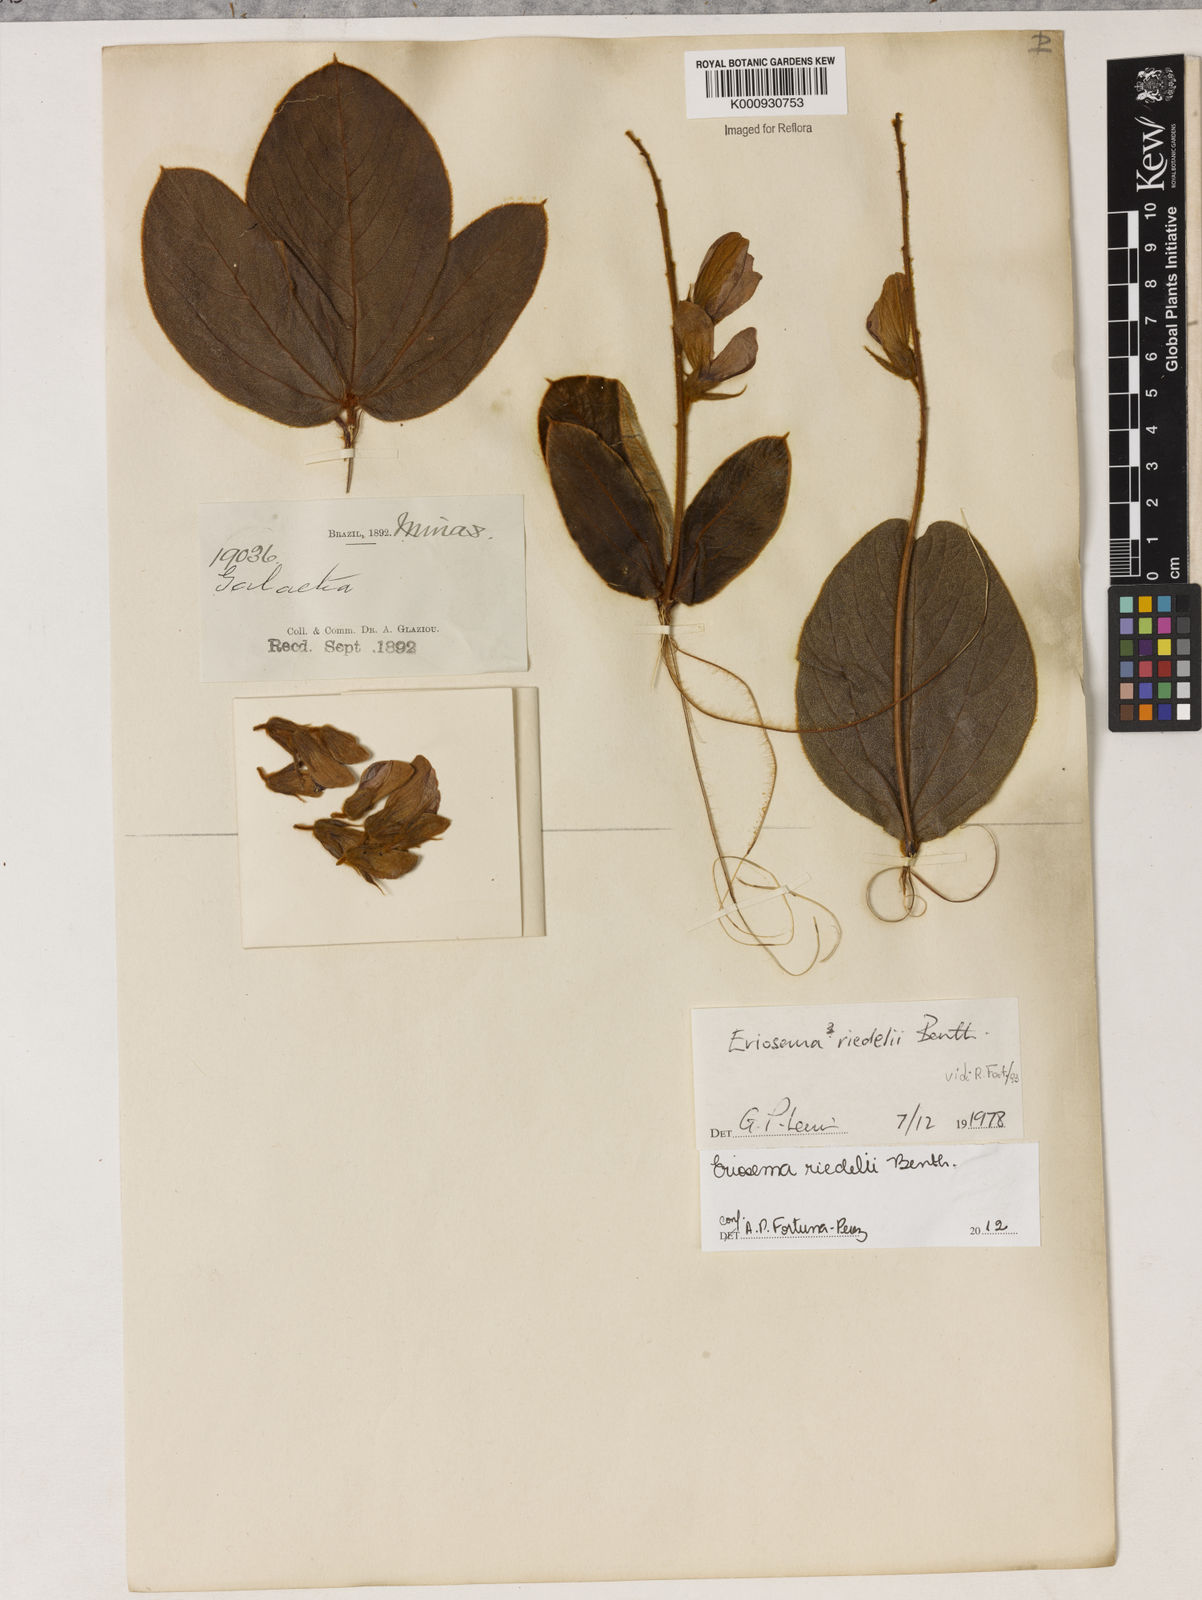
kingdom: Plantae
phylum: Tracheophyta
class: Magnoliopsida
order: Fabales
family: Fabaceae
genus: Eriosema
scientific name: Eriosema riedelii
